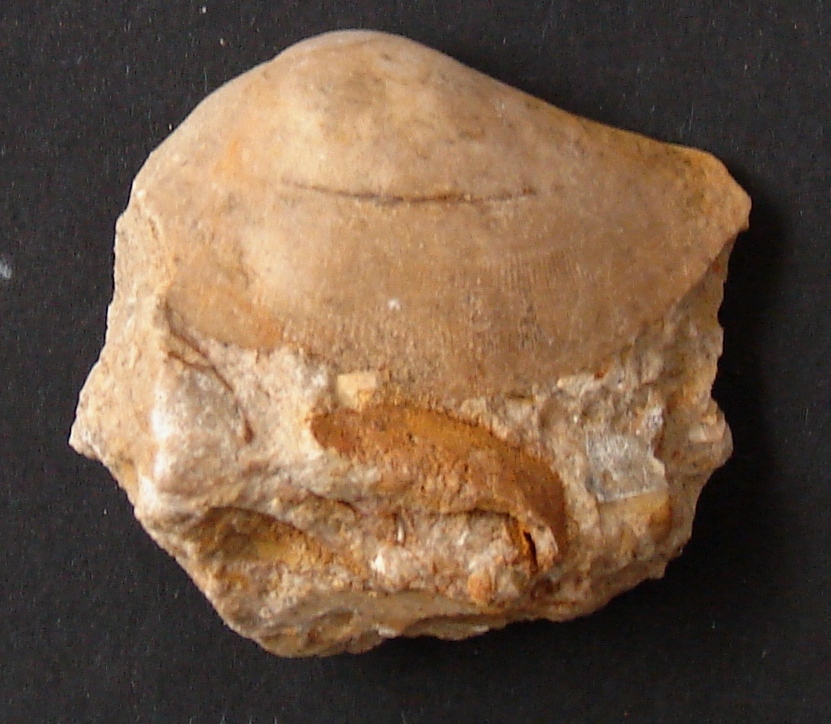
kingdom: Animalia
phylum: Mollusca
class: Bivalvia
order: Cardiida
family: Tancrediidae
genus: Tancredia
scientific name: Tancredia
